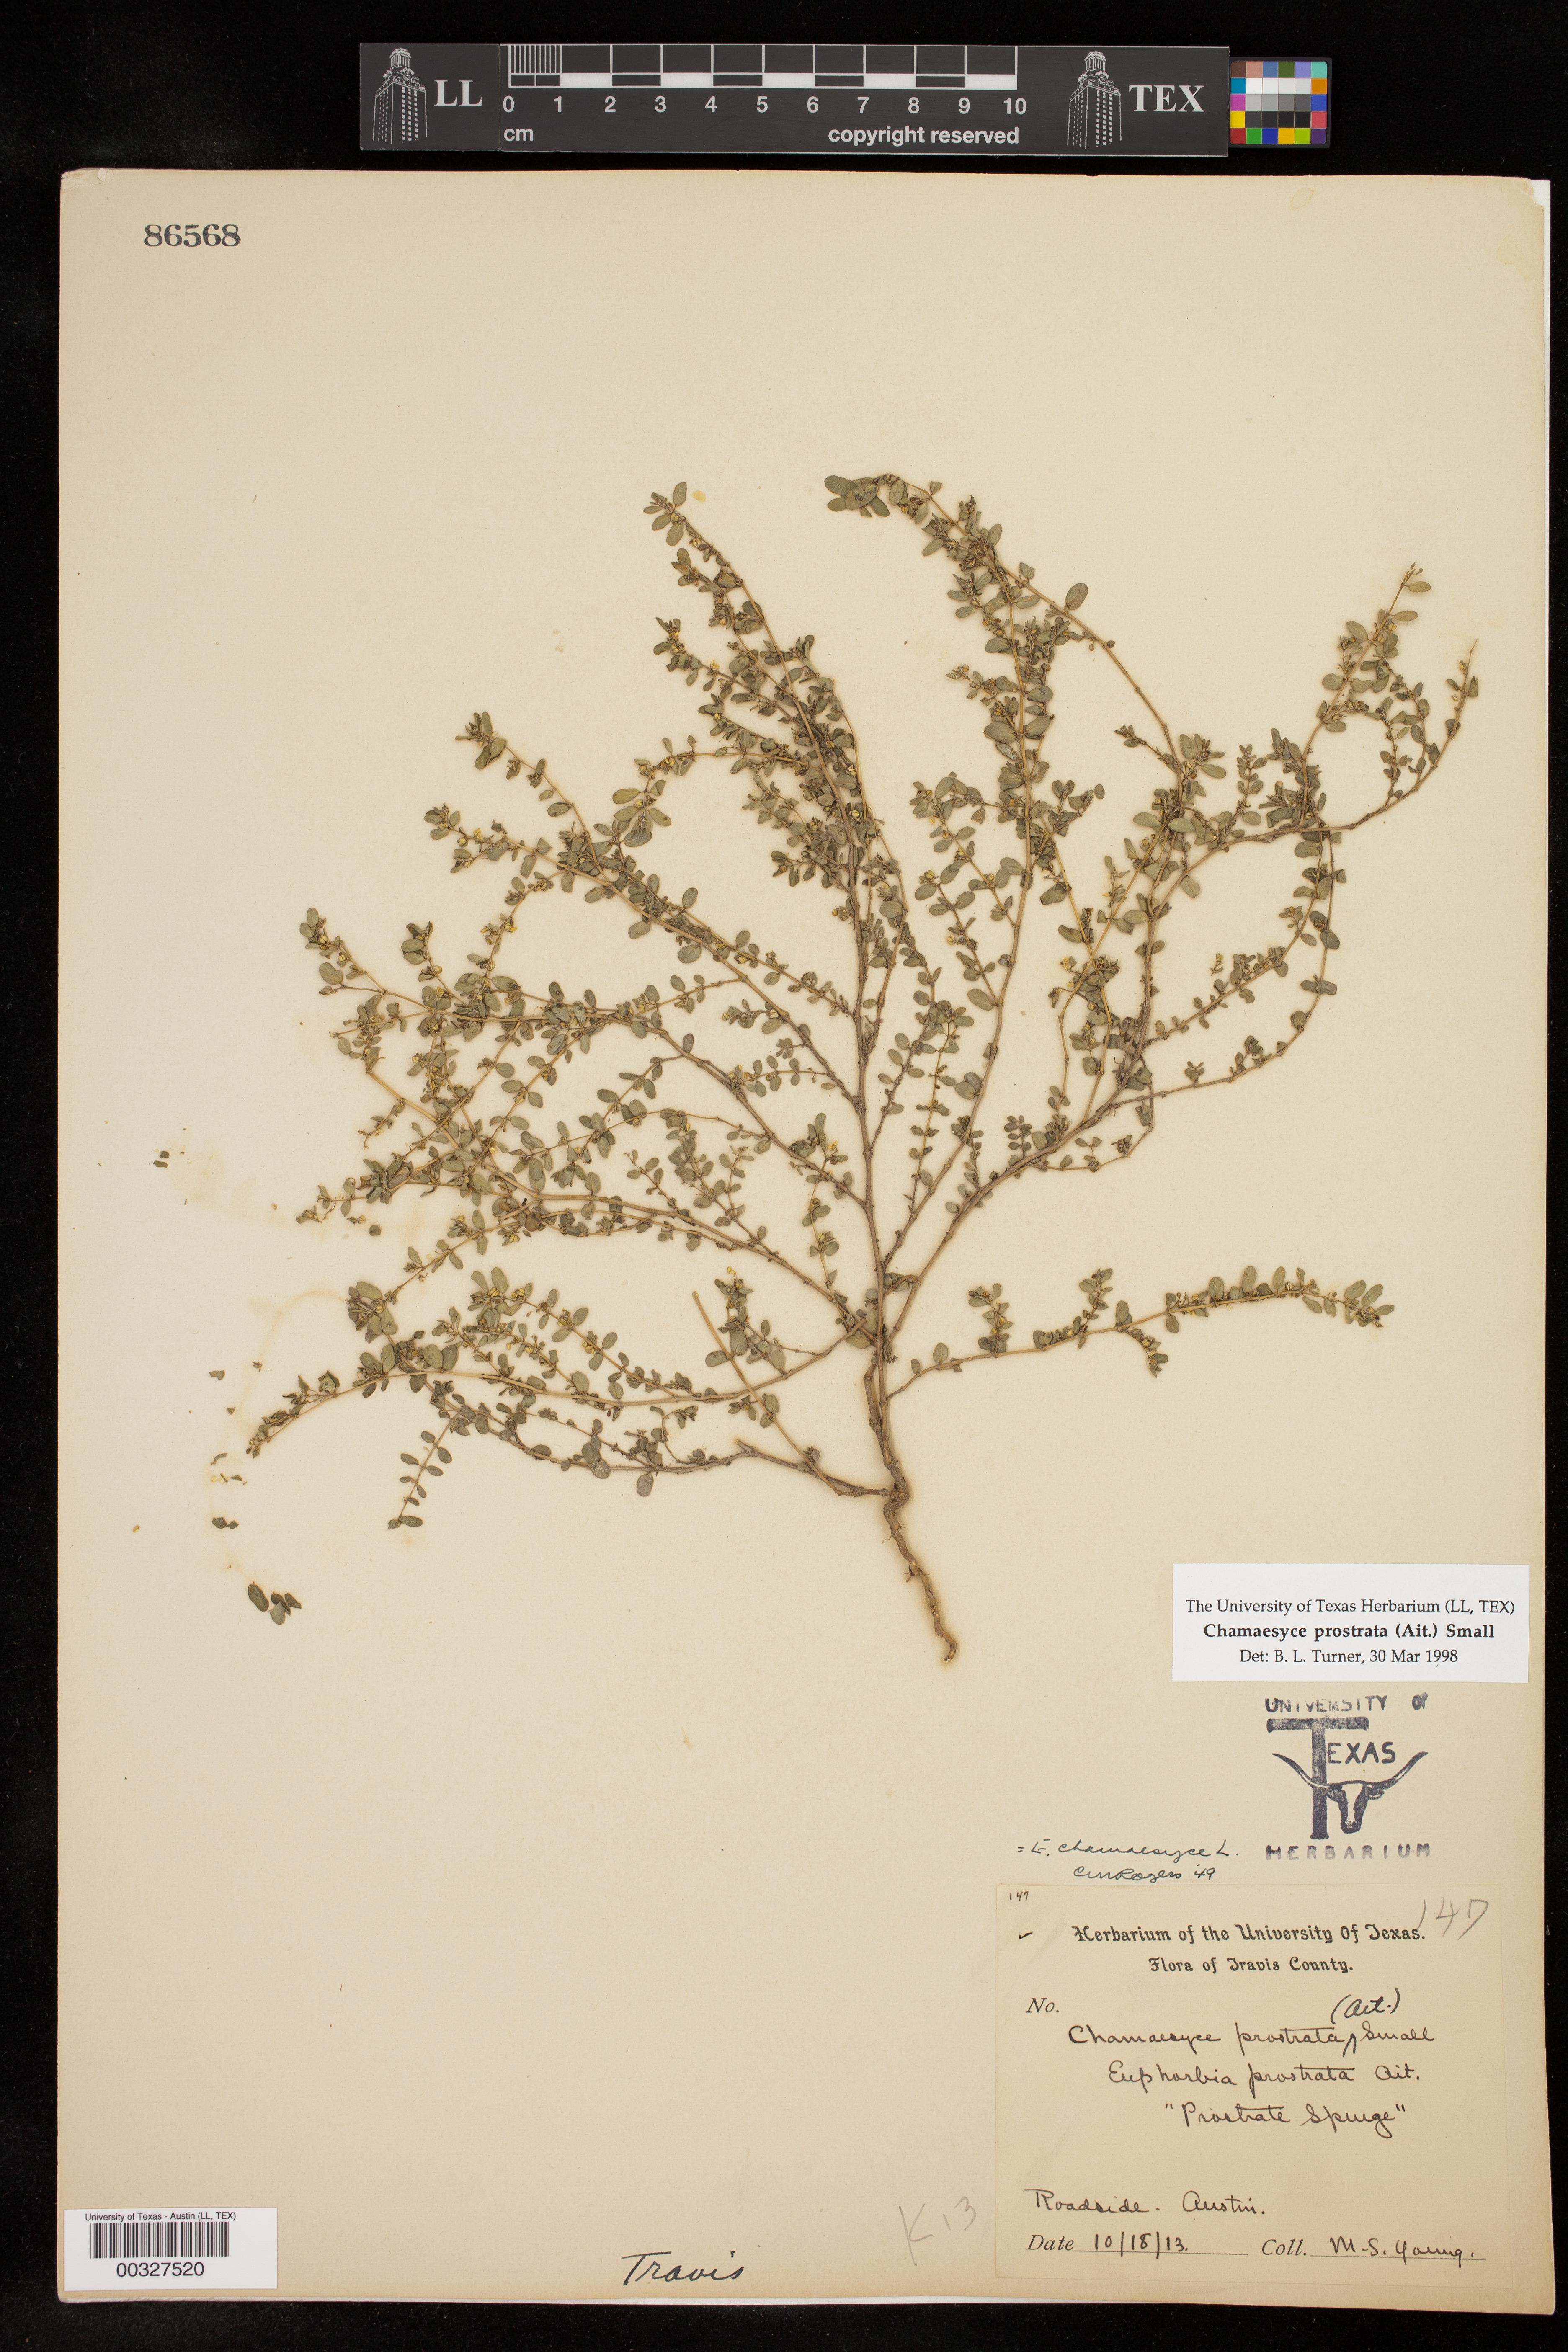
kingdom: Plantae
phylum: Tracheophyta
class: Magnoliopsida
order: Malpighiales
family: Euphorbiaceae
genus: Euphorbia
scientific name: Euphorbia prostrata
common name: Prostrate sandmat
